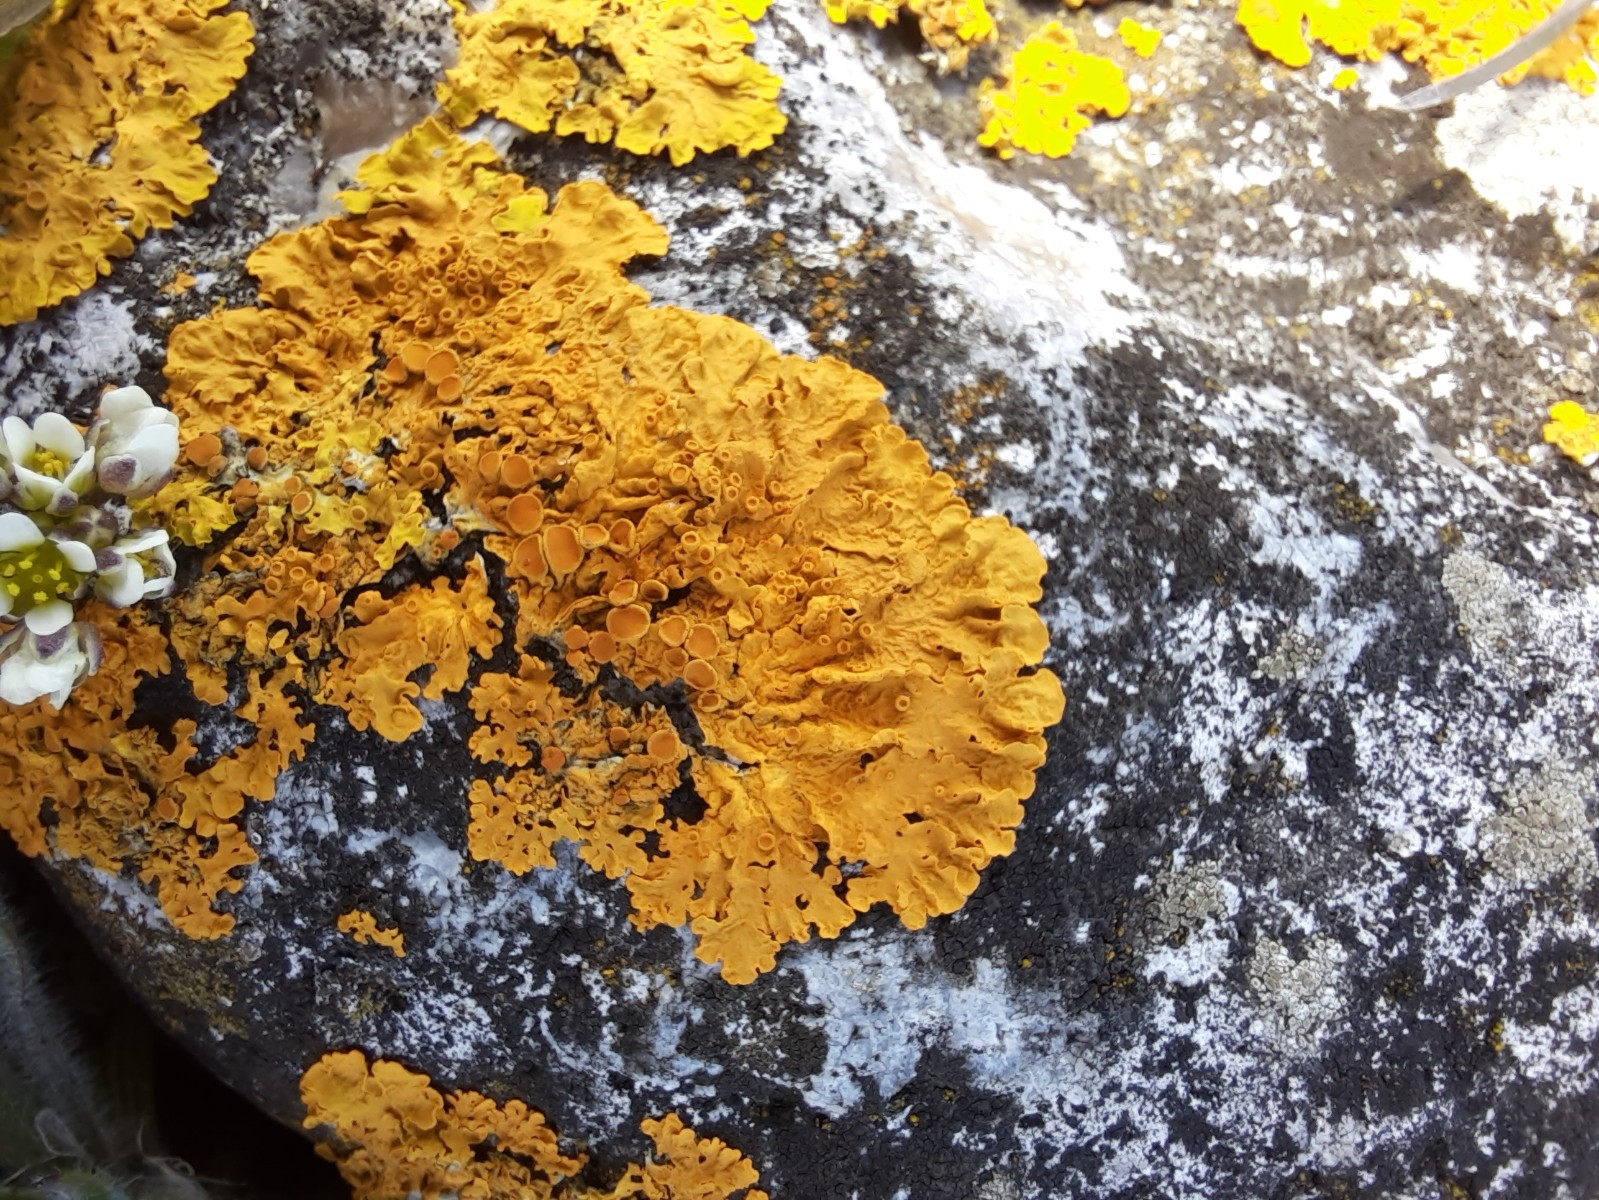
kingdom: Fungi
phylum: Ascomycota
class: Lecanoromycetes
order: Teloschistales
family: Teloschistaceae
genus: Xanthoria
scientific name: Xanthoria parietina
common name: almindelig væggelav
